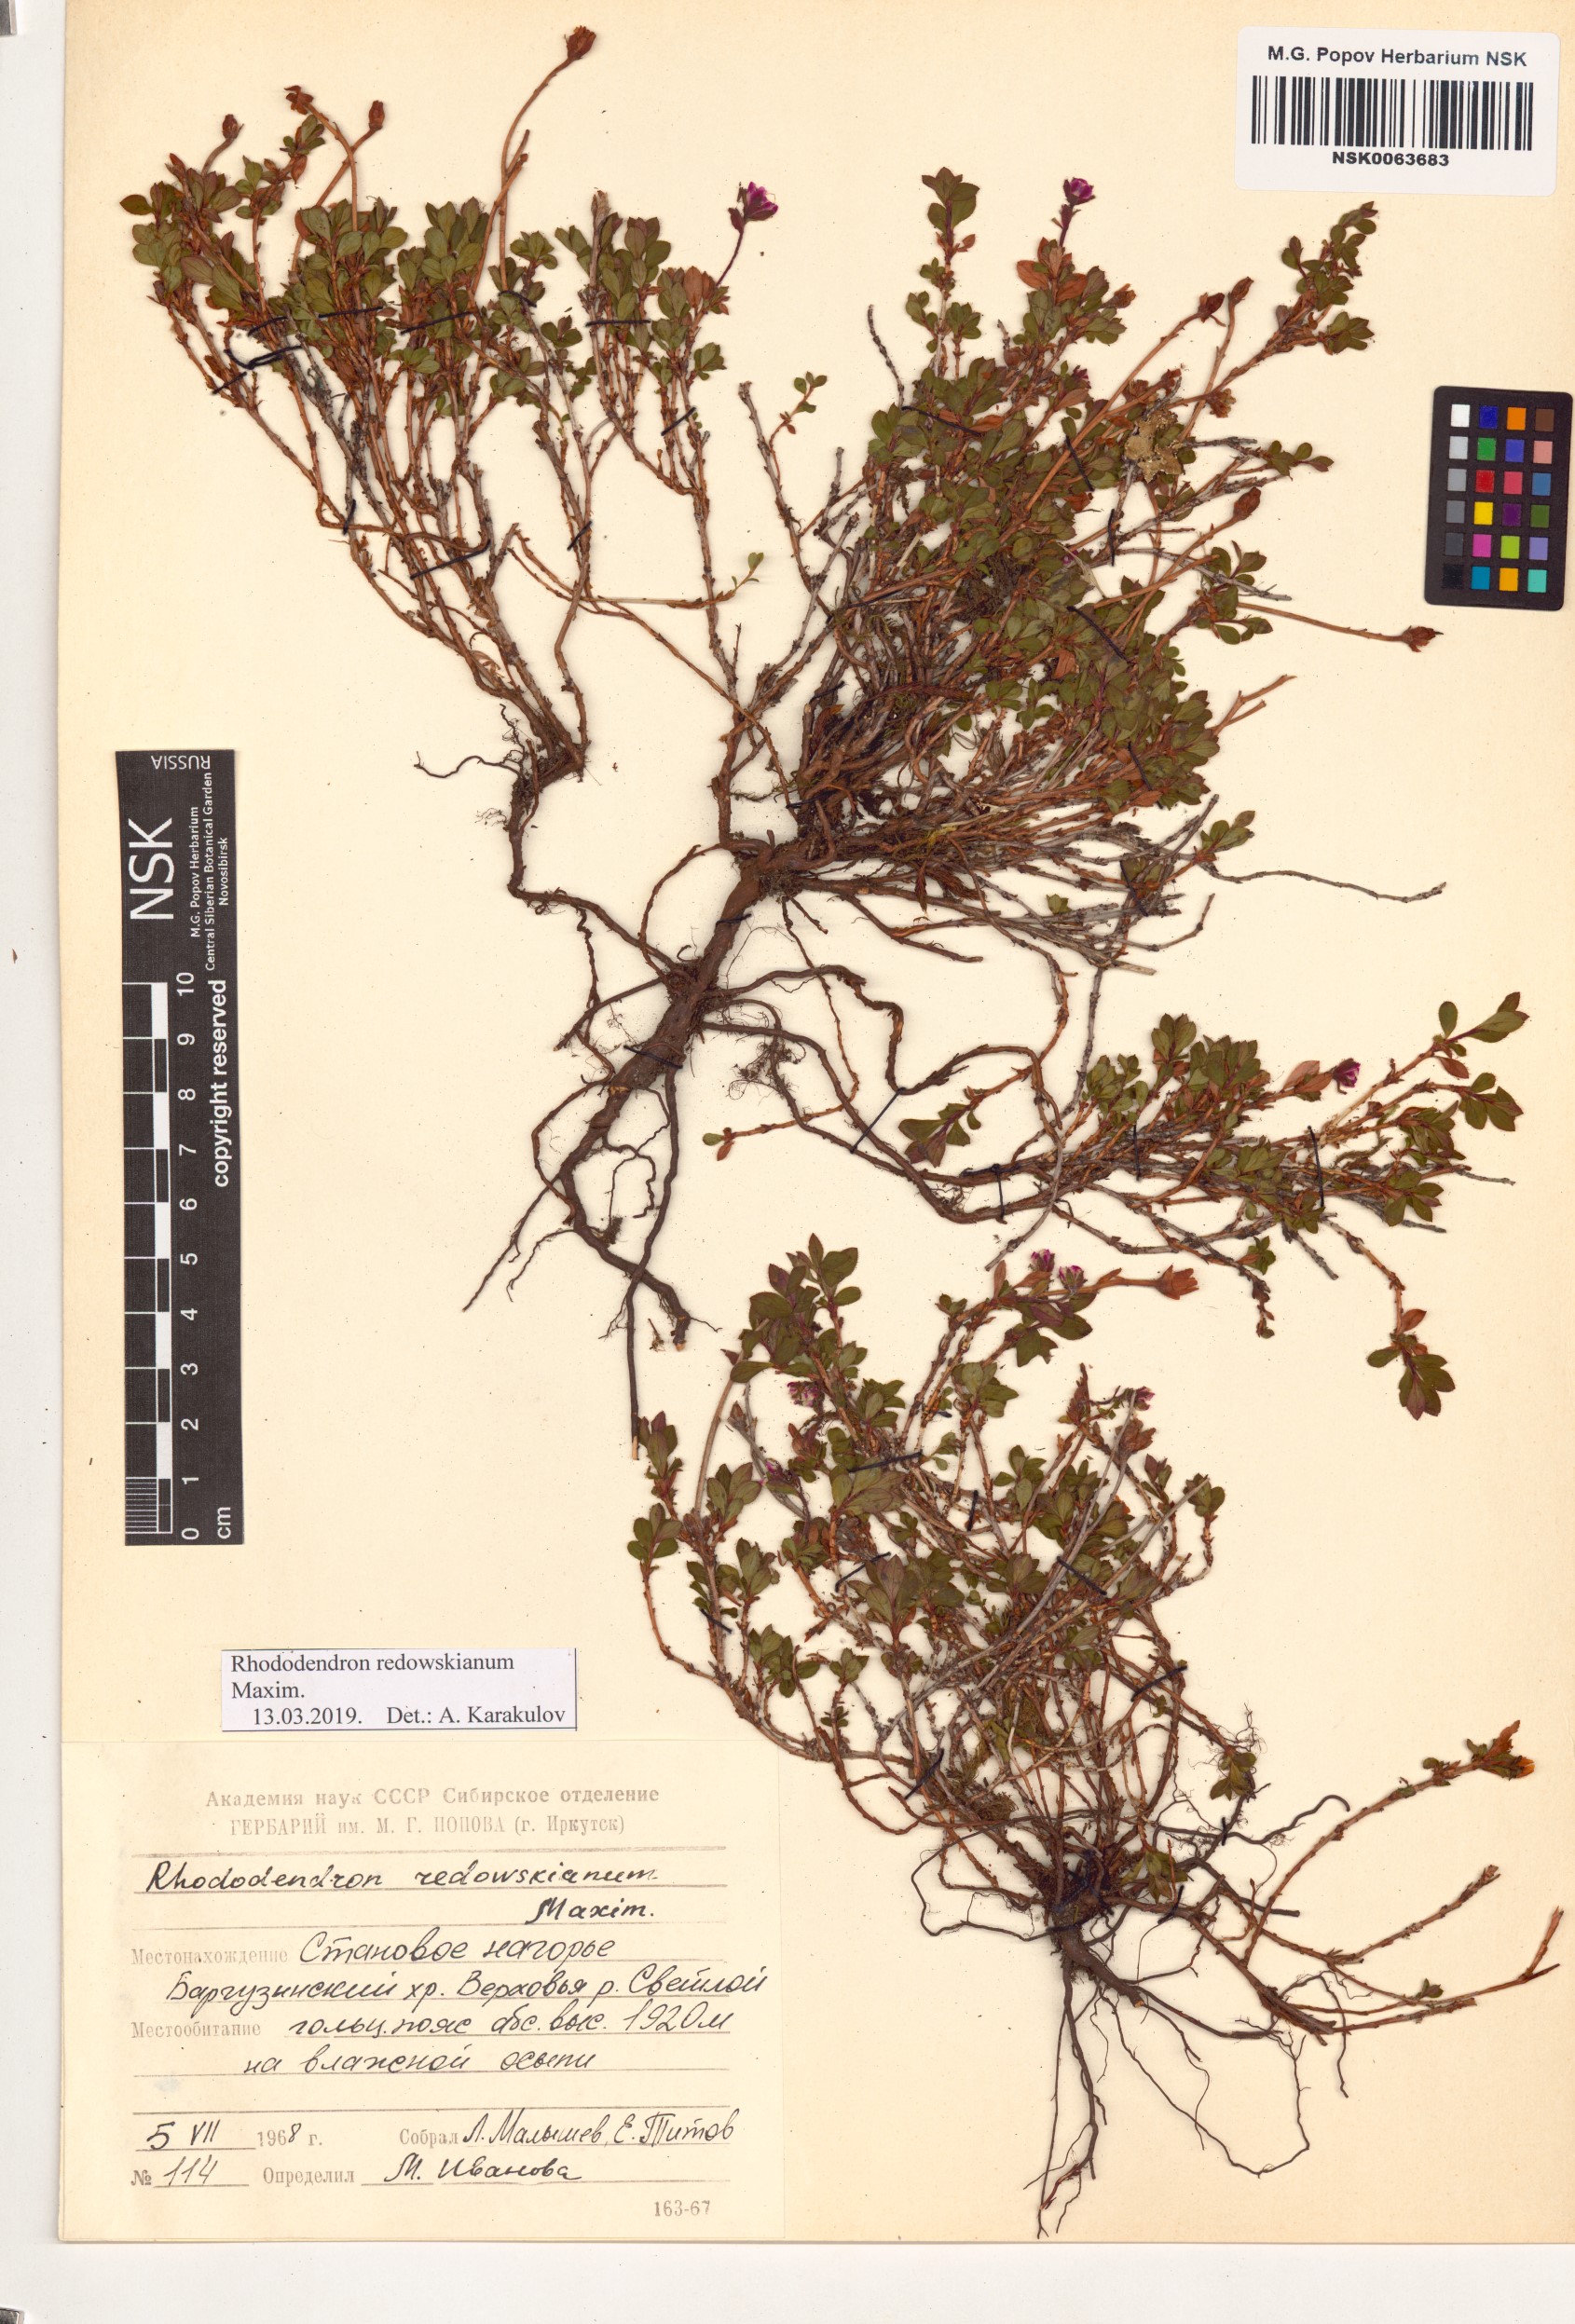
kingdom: Plantae
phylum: Tracheophyta
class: Magnoliopsida
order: Ericales
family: Ericaceae
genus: Rhododendron
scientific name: Rhododendron redowskianum
